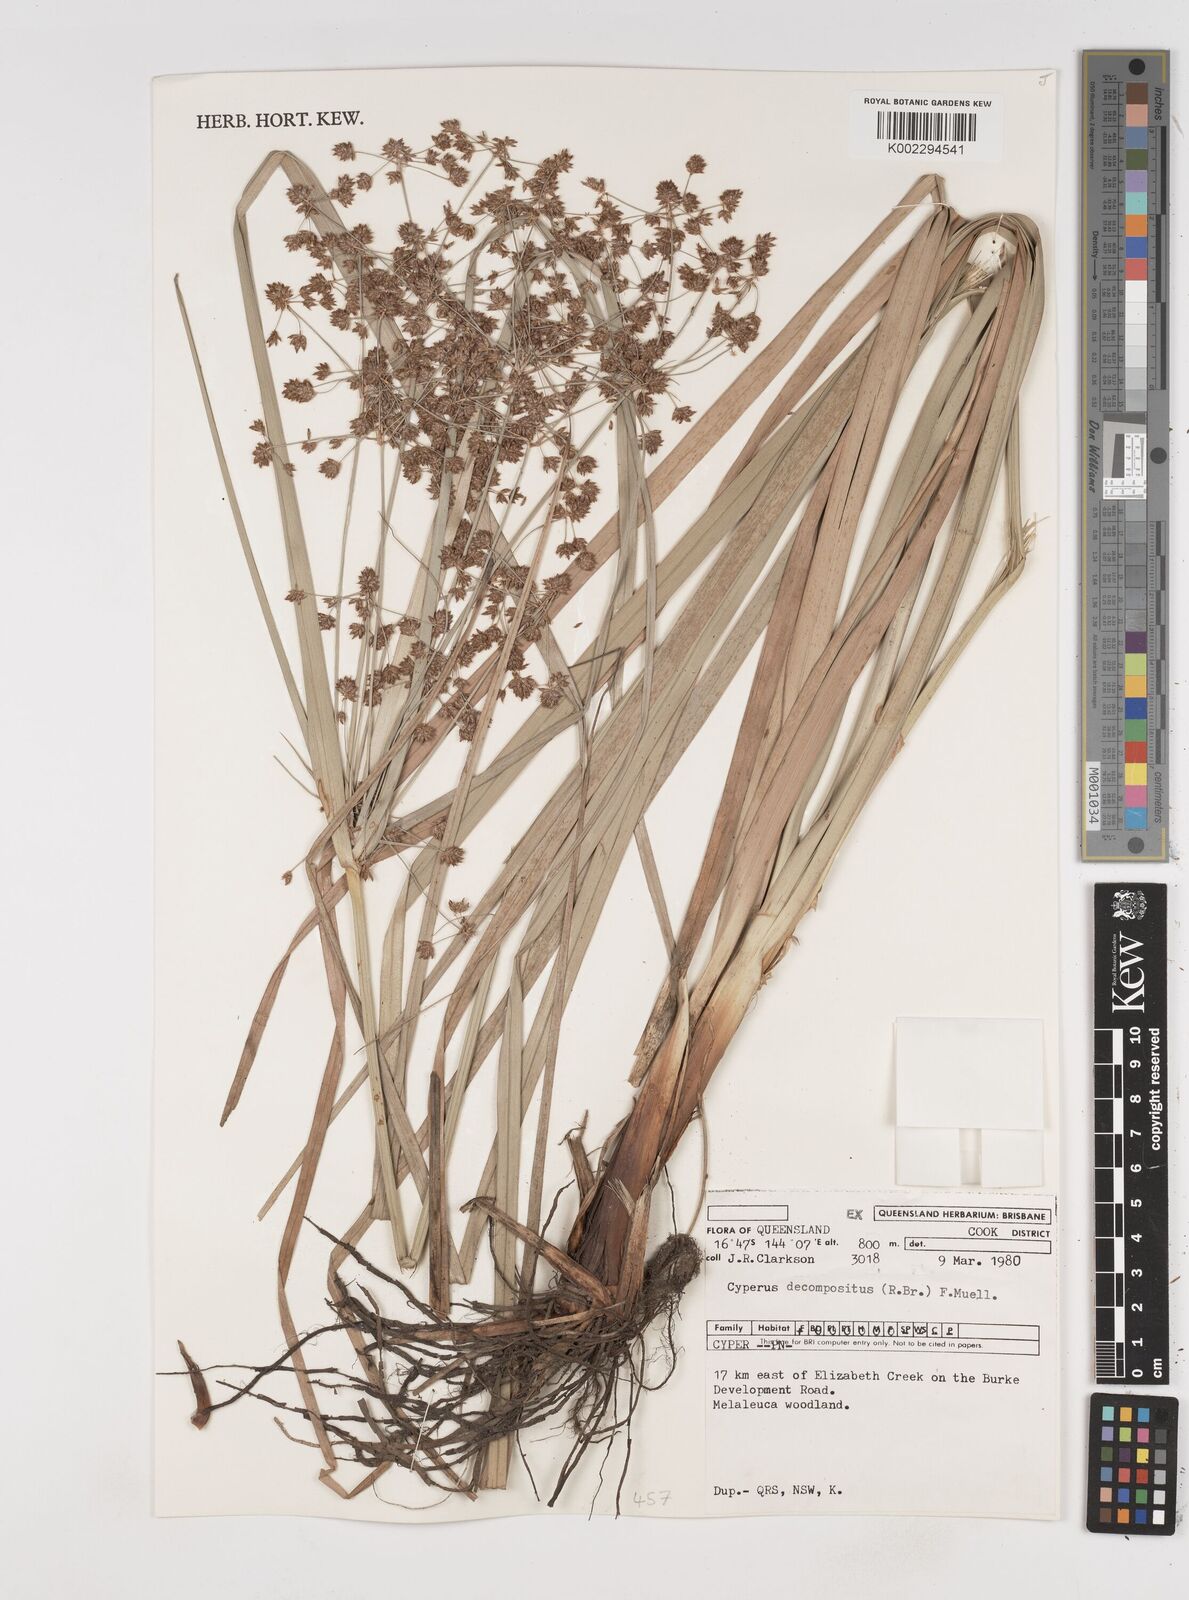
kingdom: Plantae
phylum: Tracheophyta
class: Liliopsida
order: Poales
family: Cyperaceae
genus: Cyperus
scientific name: Cyperus decompositus
